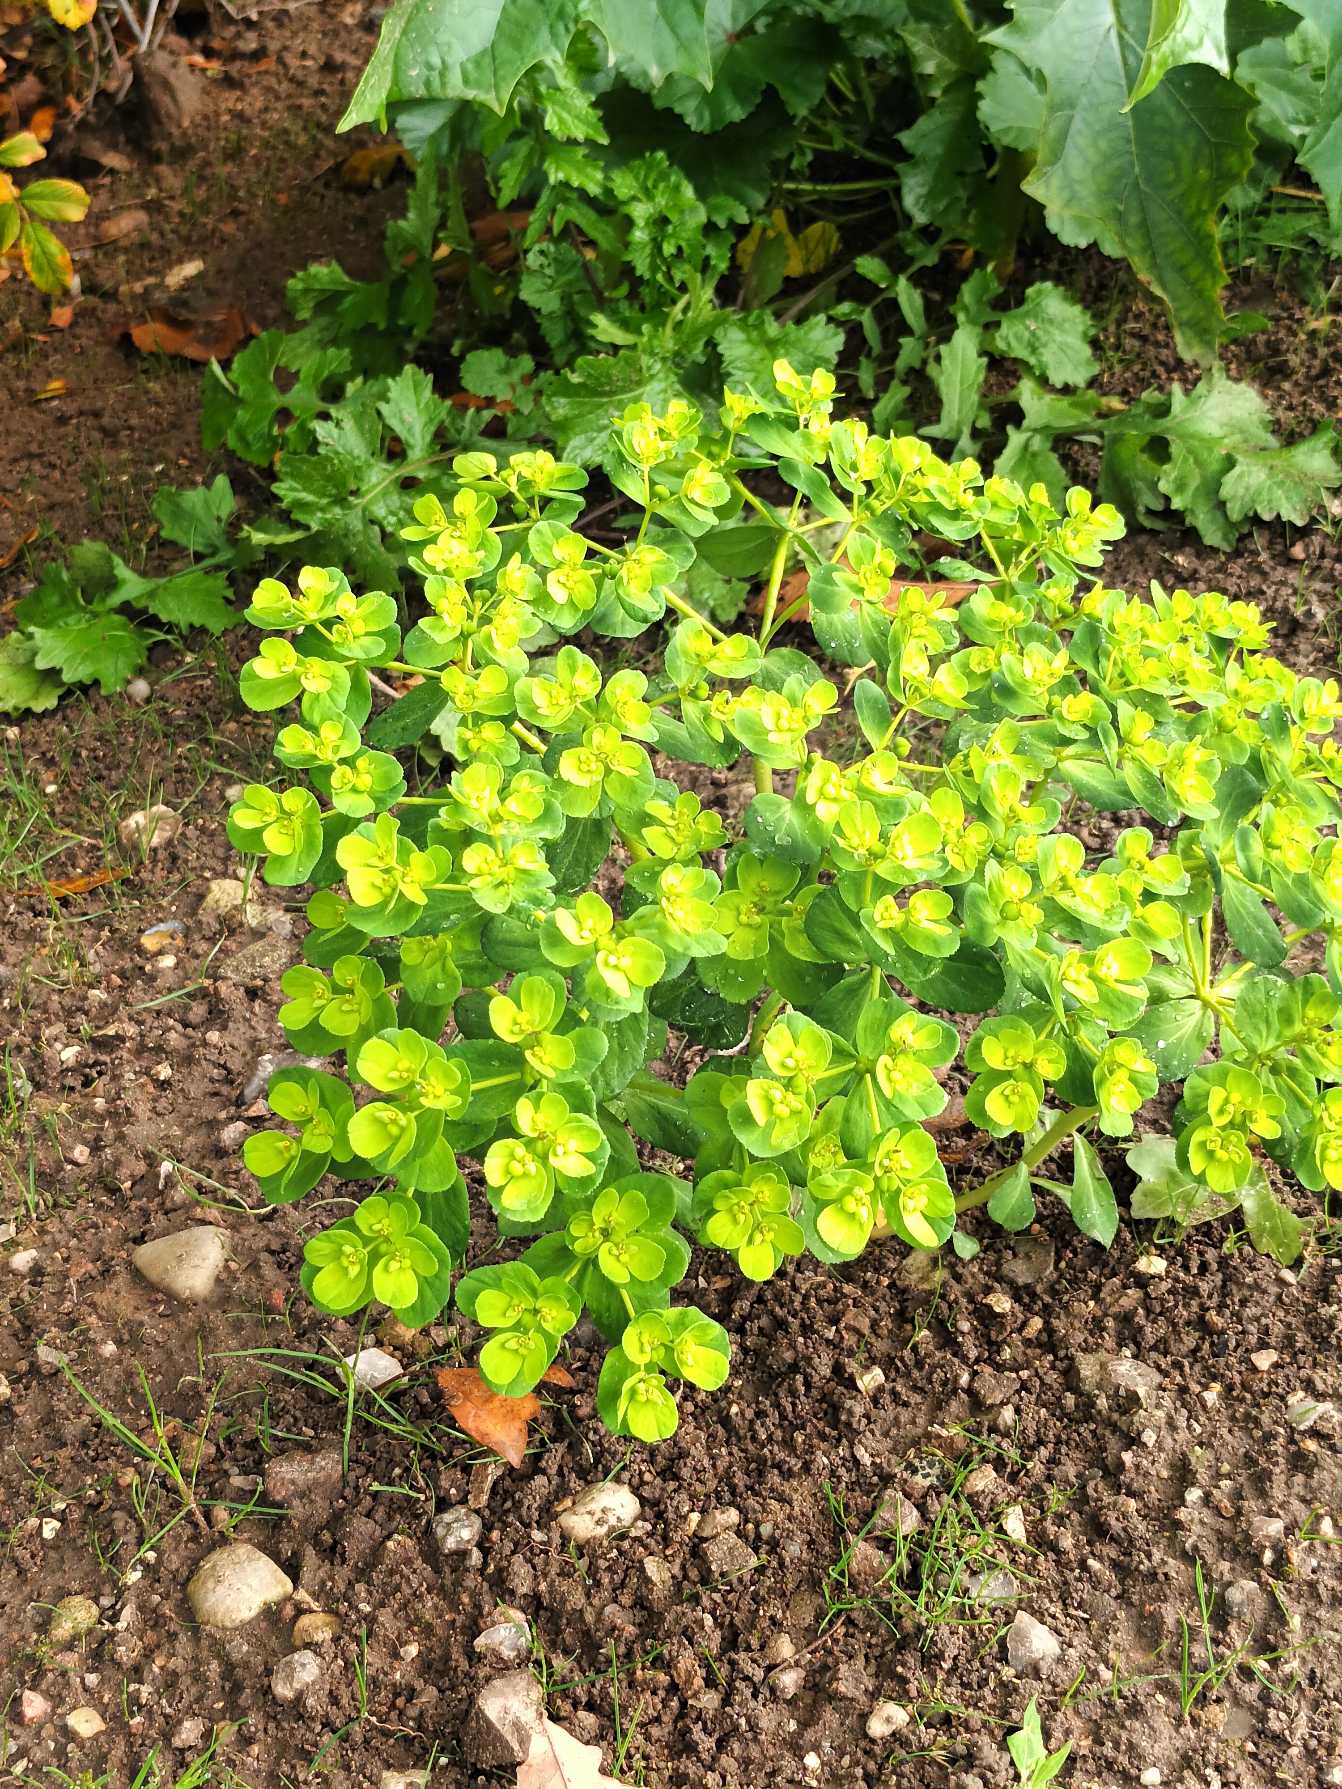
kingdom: Plantae
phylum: Tracheophyta
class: Magnoliopsida
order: Malpighiales
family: Euphorbiaceae
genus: Euphorbia
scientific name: Euphorbia helioscopia
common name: Skærm-vortemælk
